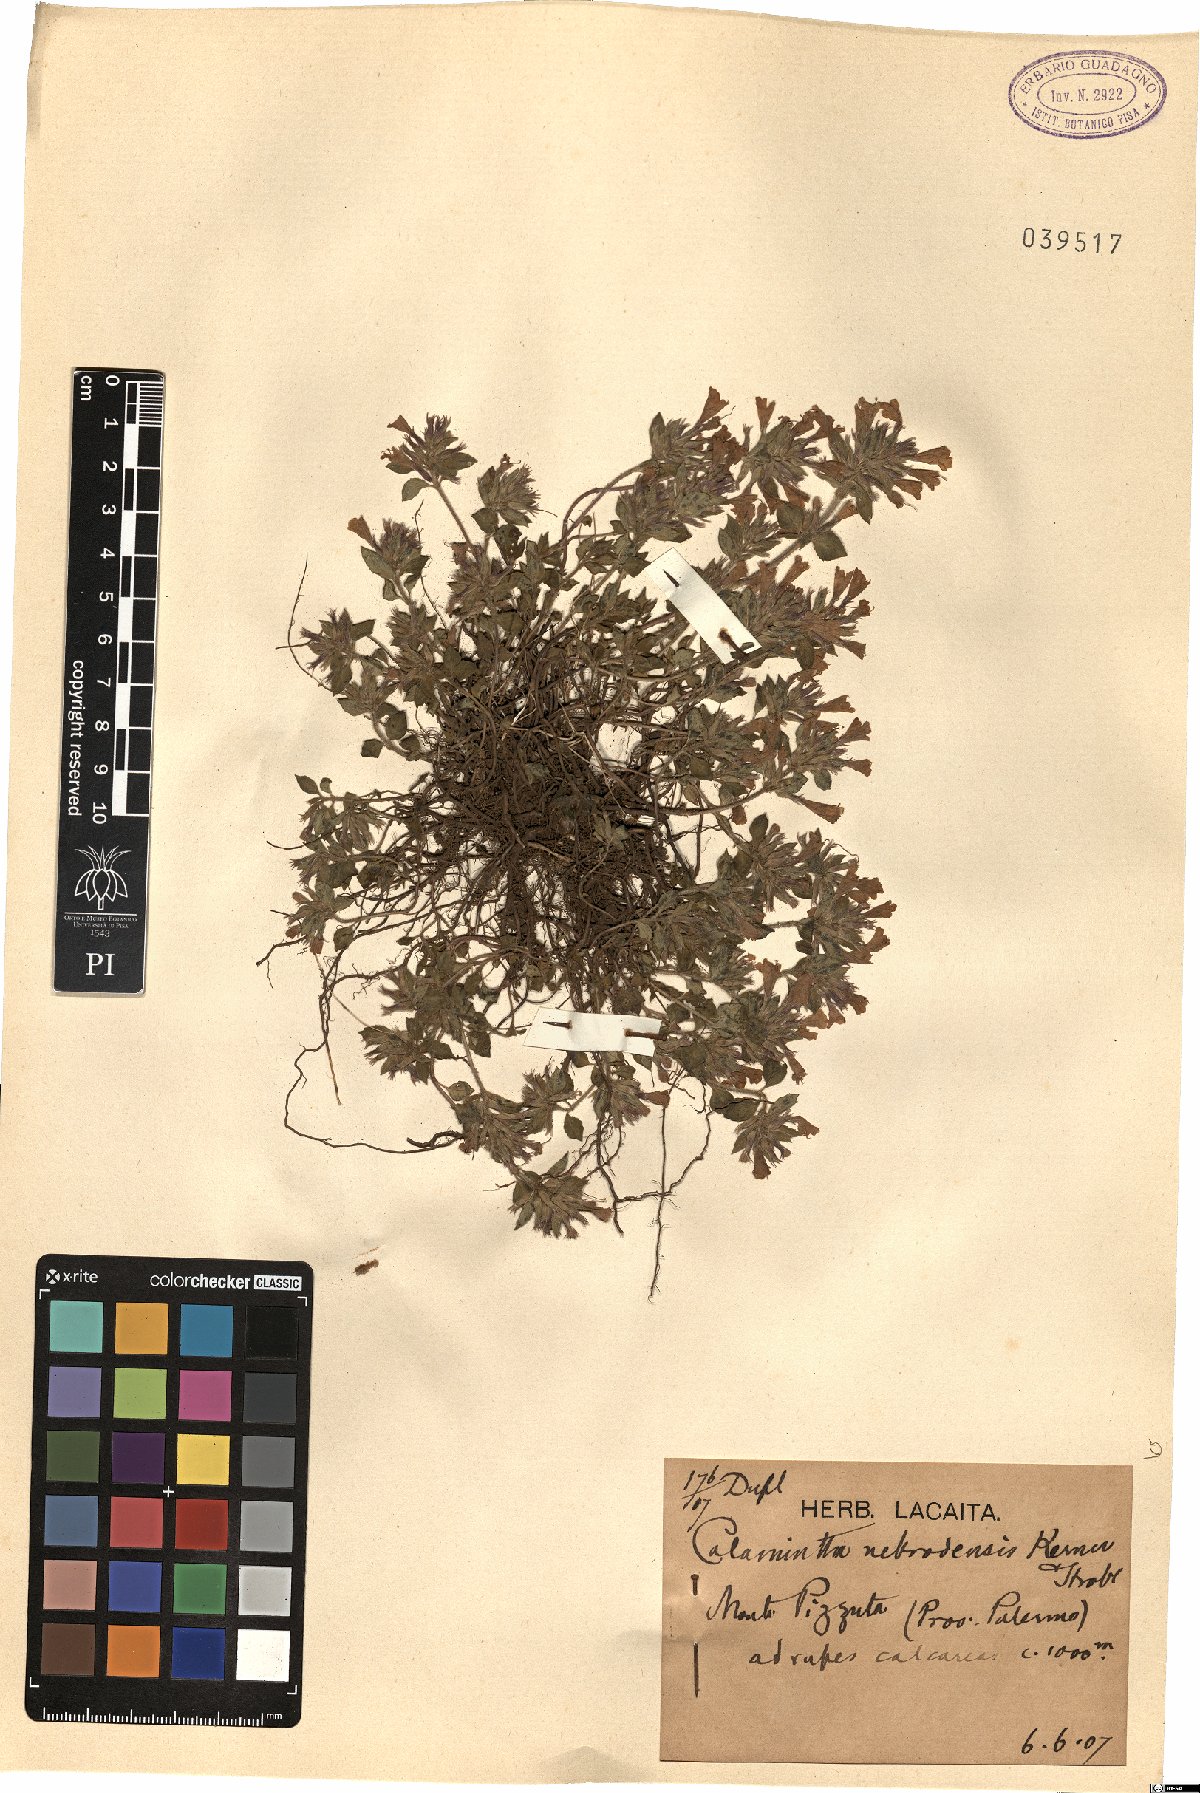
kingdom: Plantae
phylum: Tracheophyta
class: Magnoliopsida
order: Lamiales
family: Lamiaceae
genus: Clinopodium
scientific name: Clinopodium alpinum
